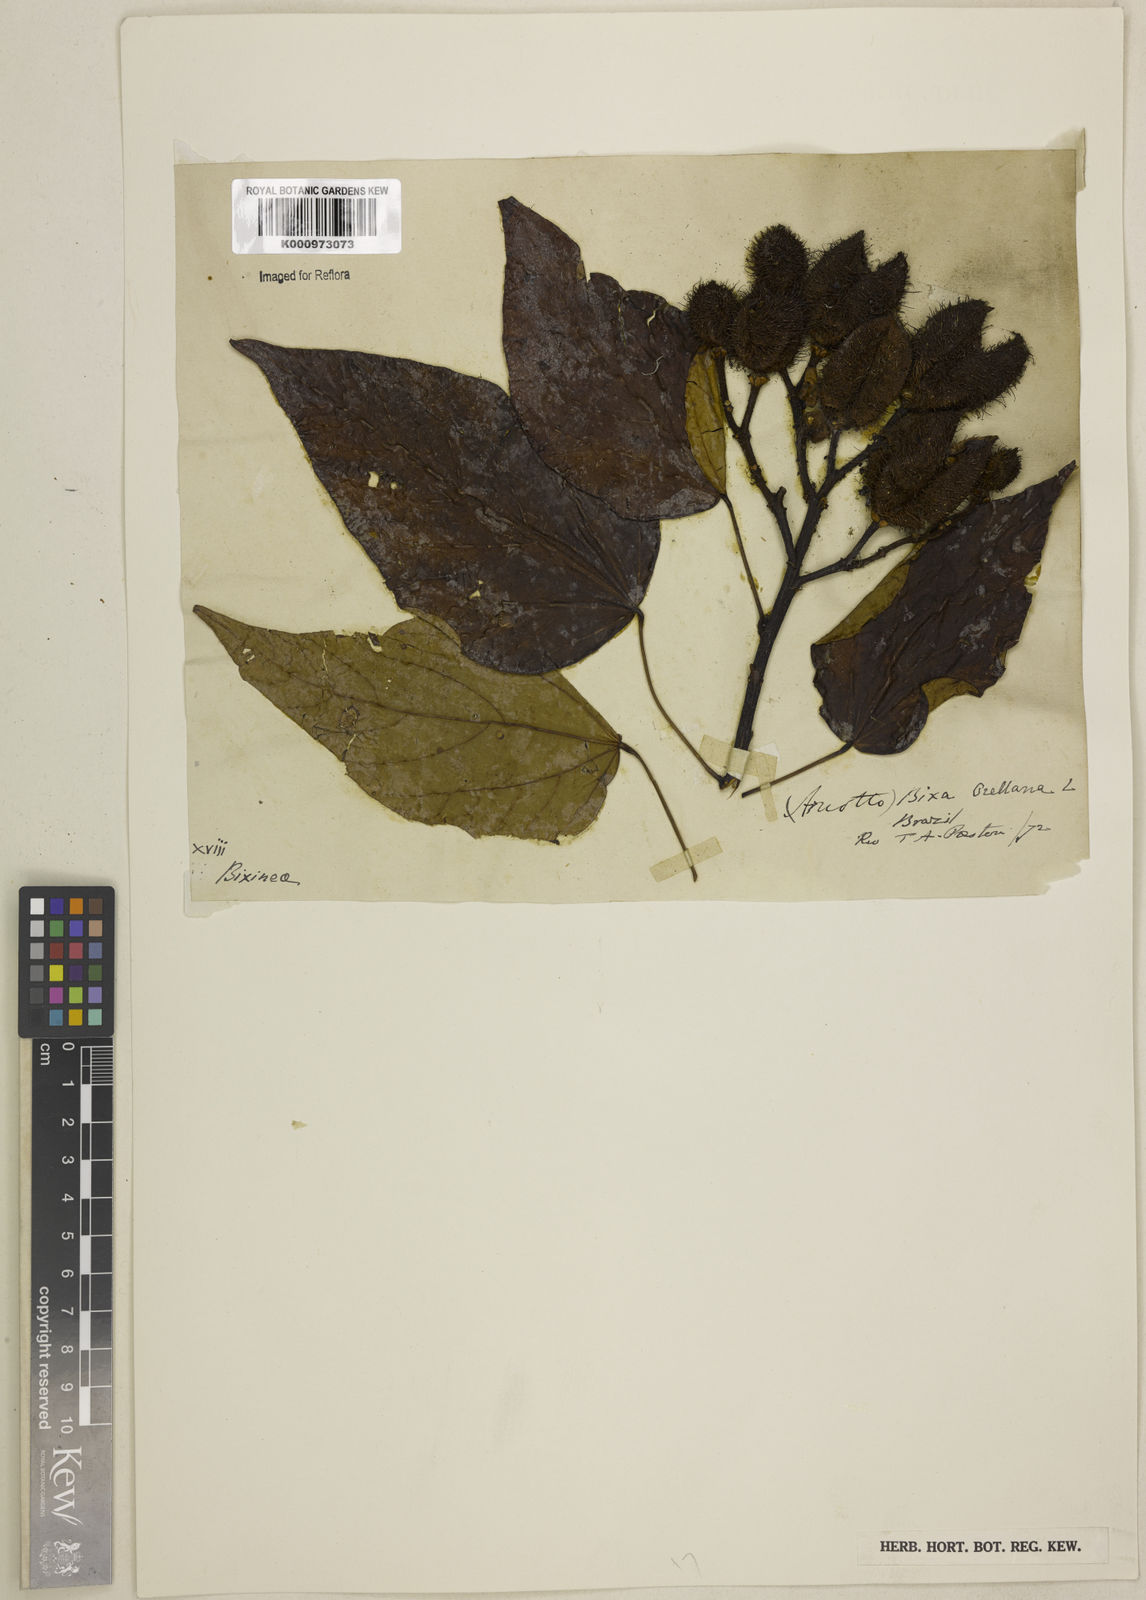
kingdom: Plantae
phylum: Tracheophyta
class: Magnoliopsida
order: Malvales
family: Bixaceae
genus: Bixa
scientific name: Bixa orellana
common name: Lipsticktree
